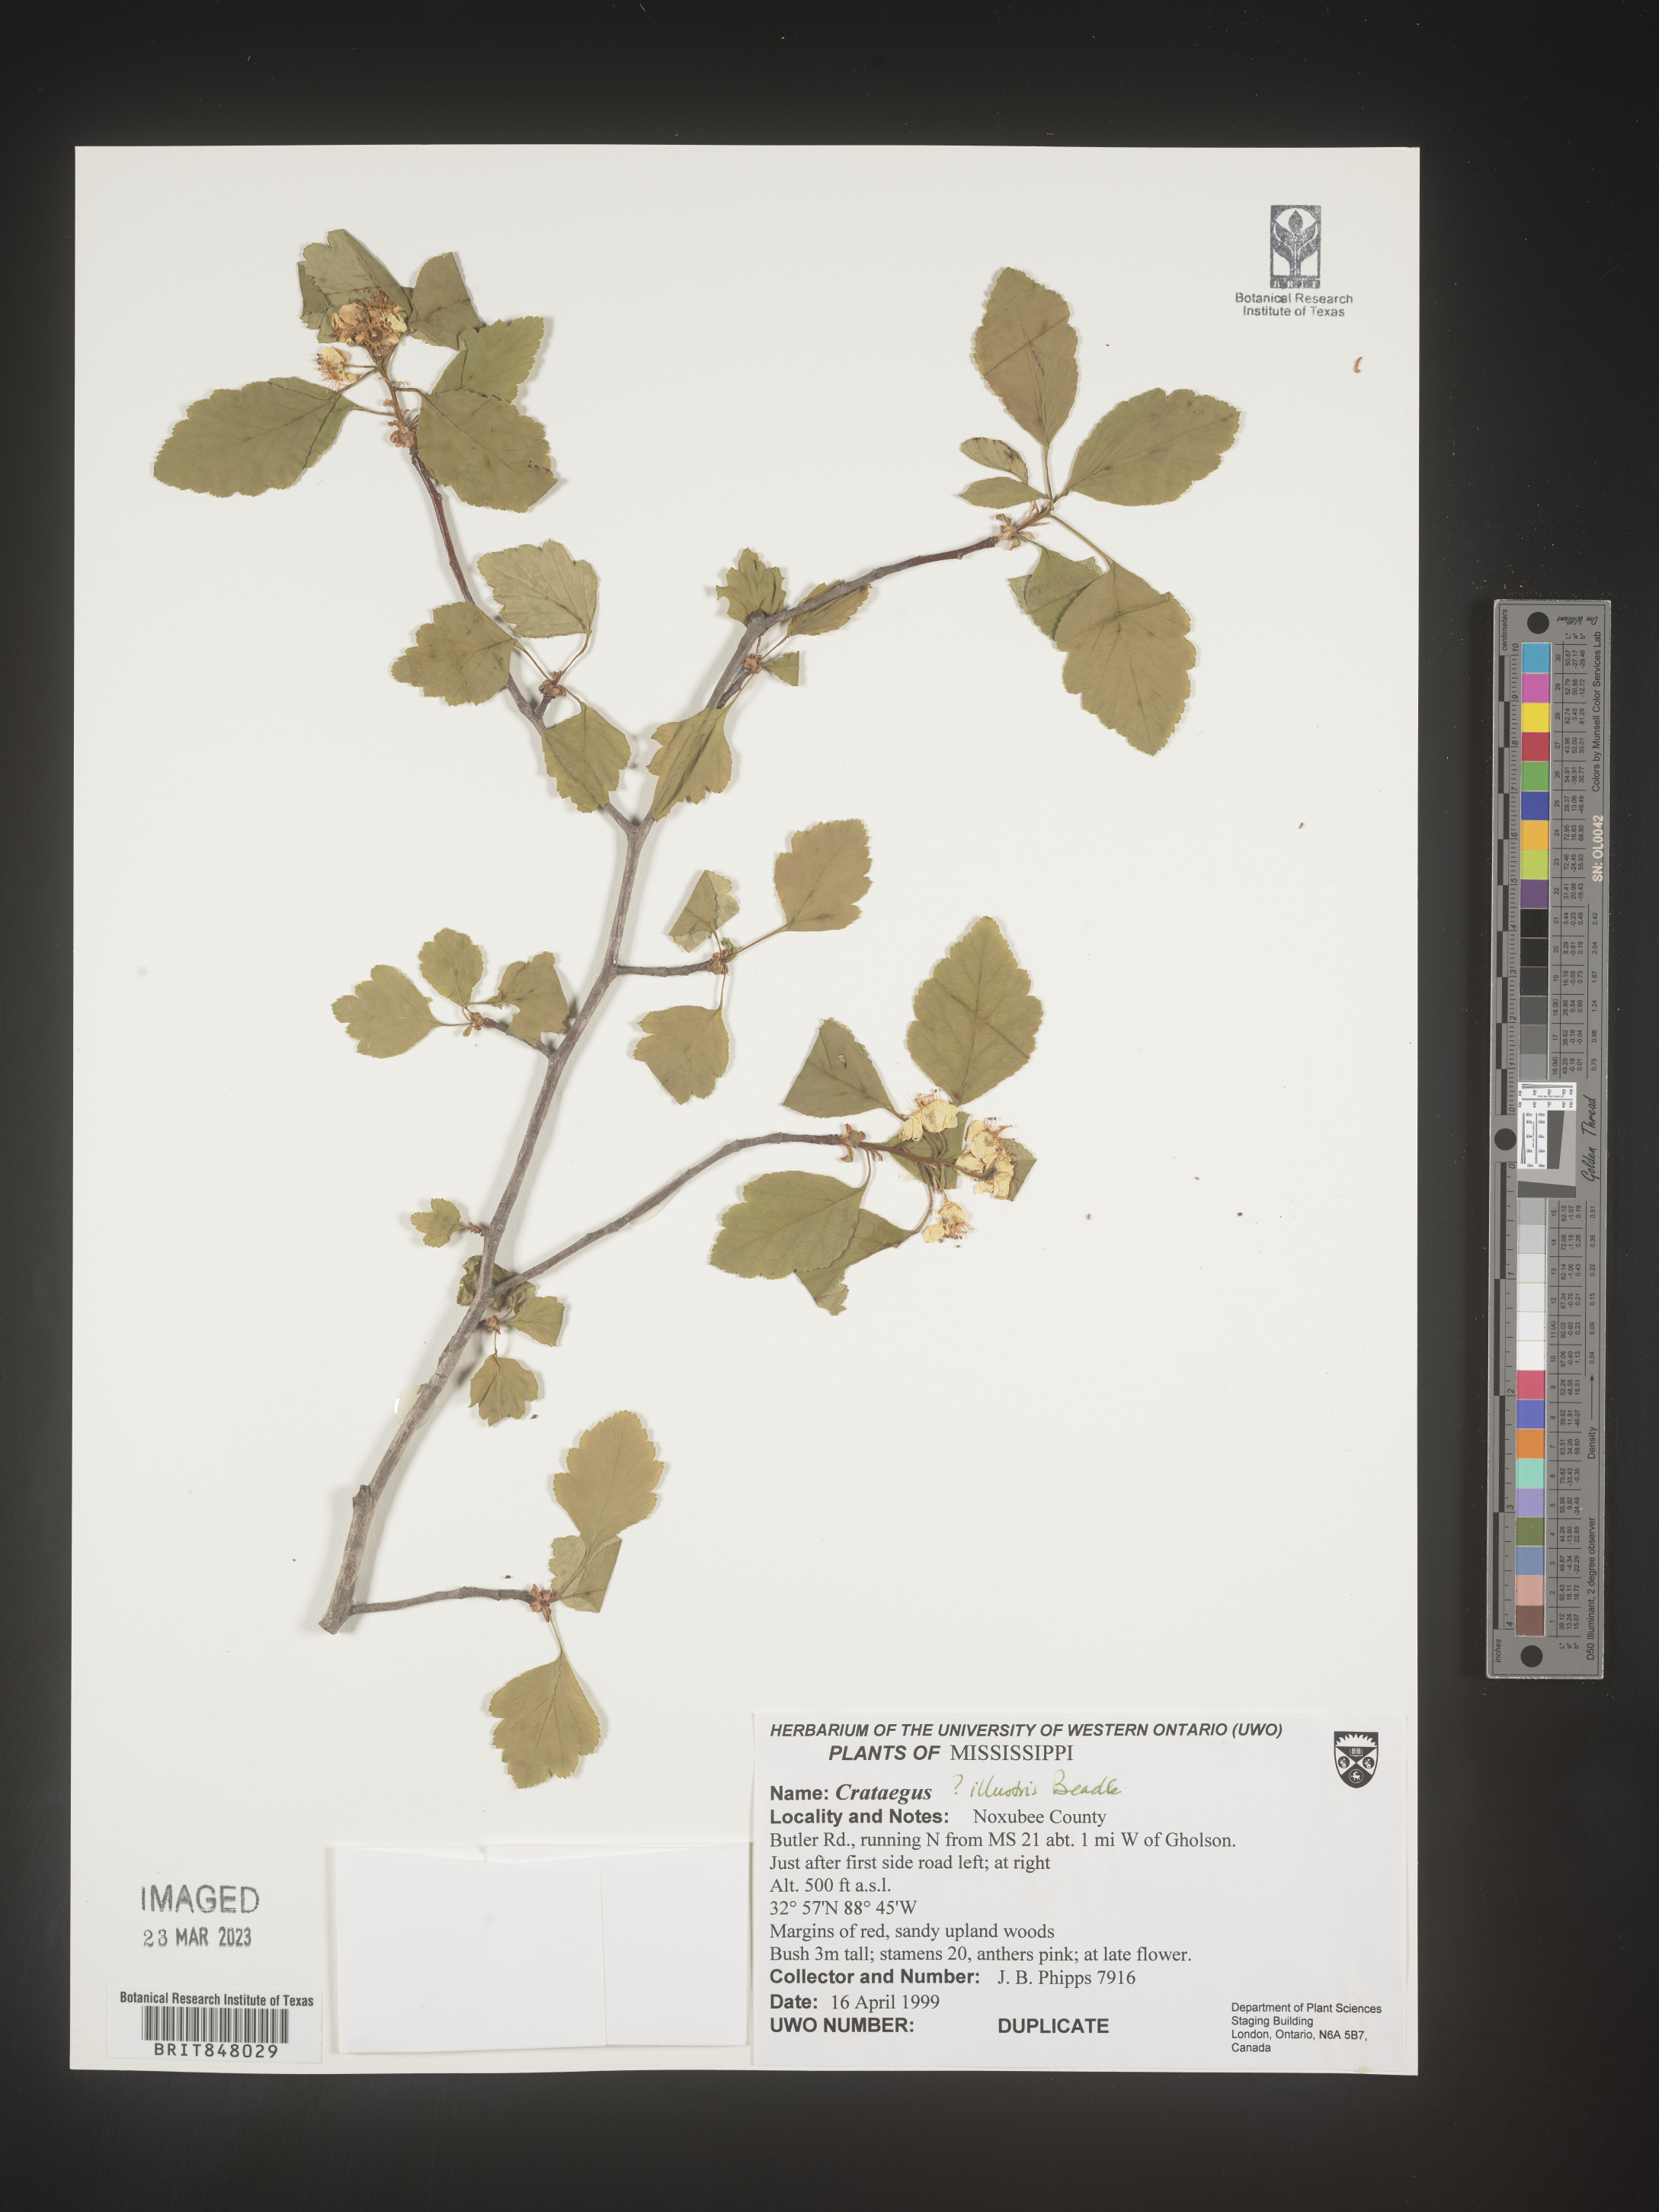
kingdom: Plantae
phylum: Tracheophyta
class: Magnoliopsida
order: Rosales
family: Rosaceae
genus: Crataegus
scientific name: Crataegus
